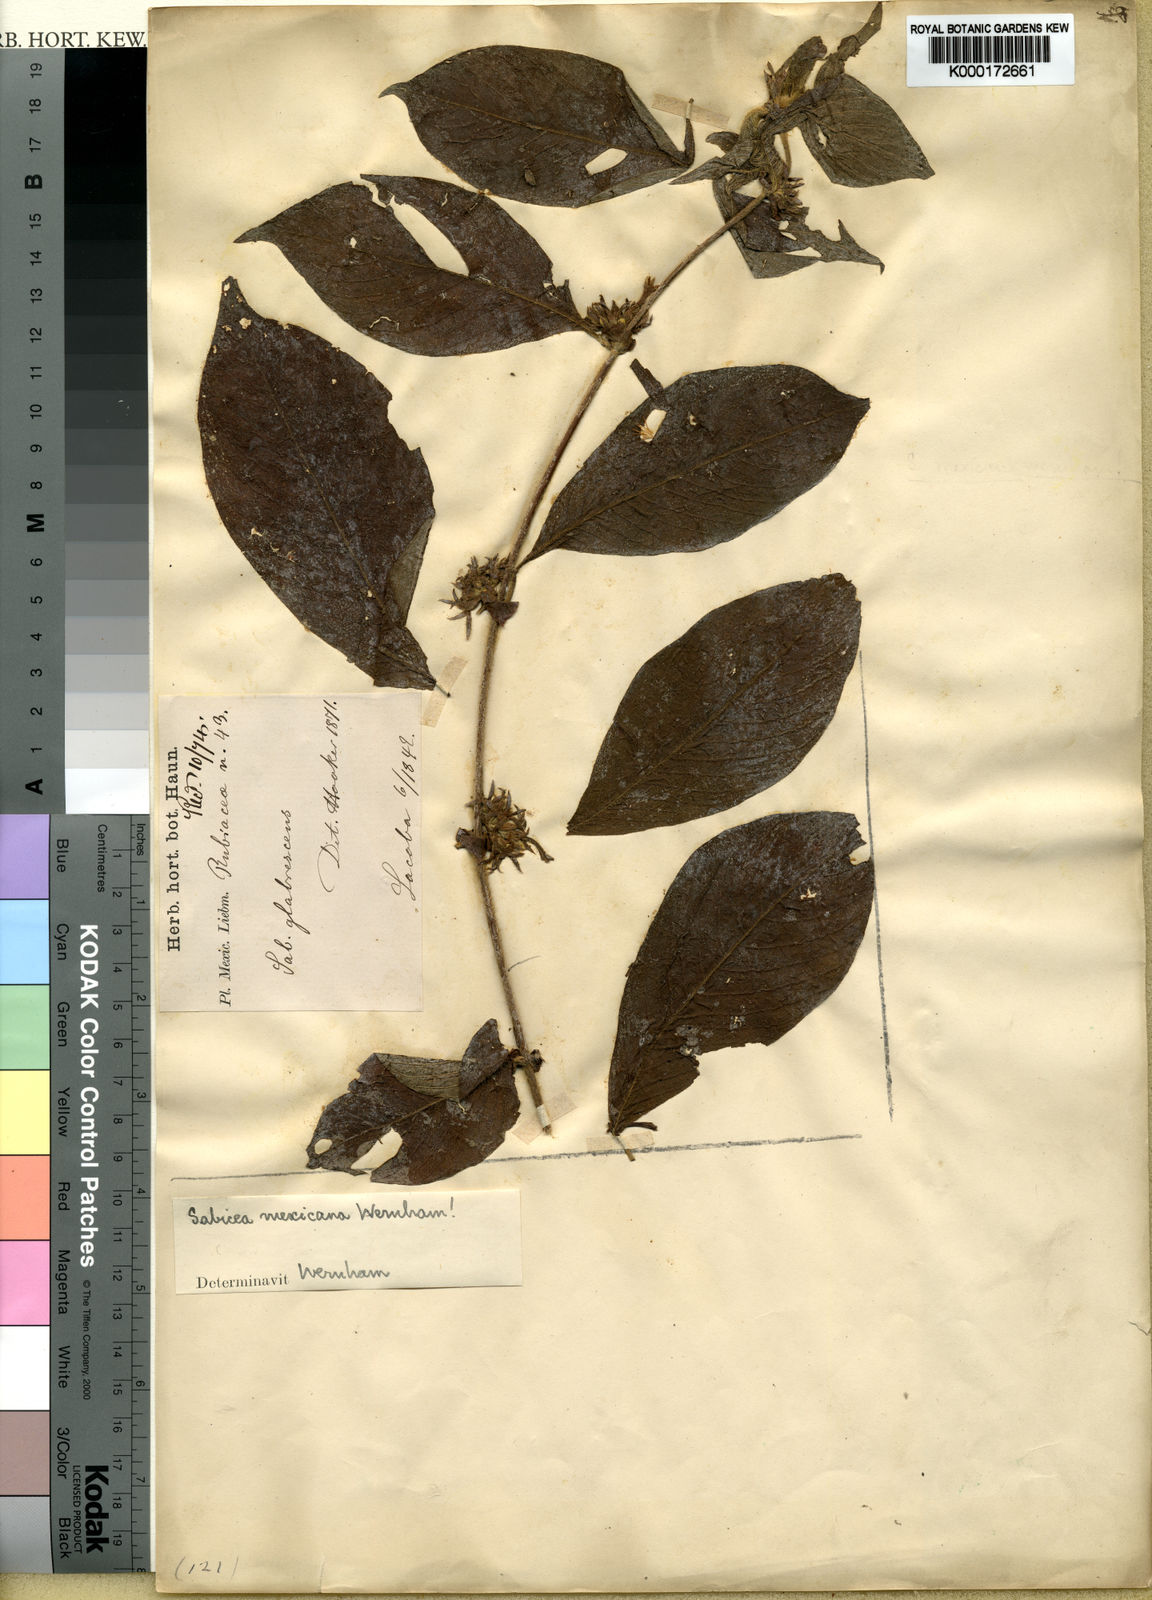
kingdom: Plantae
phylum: Tracheophyta
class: Magnoliopsida
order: Gentianales
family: Rubiaceae
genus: Sabicea
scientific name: Sabicea mexicana
